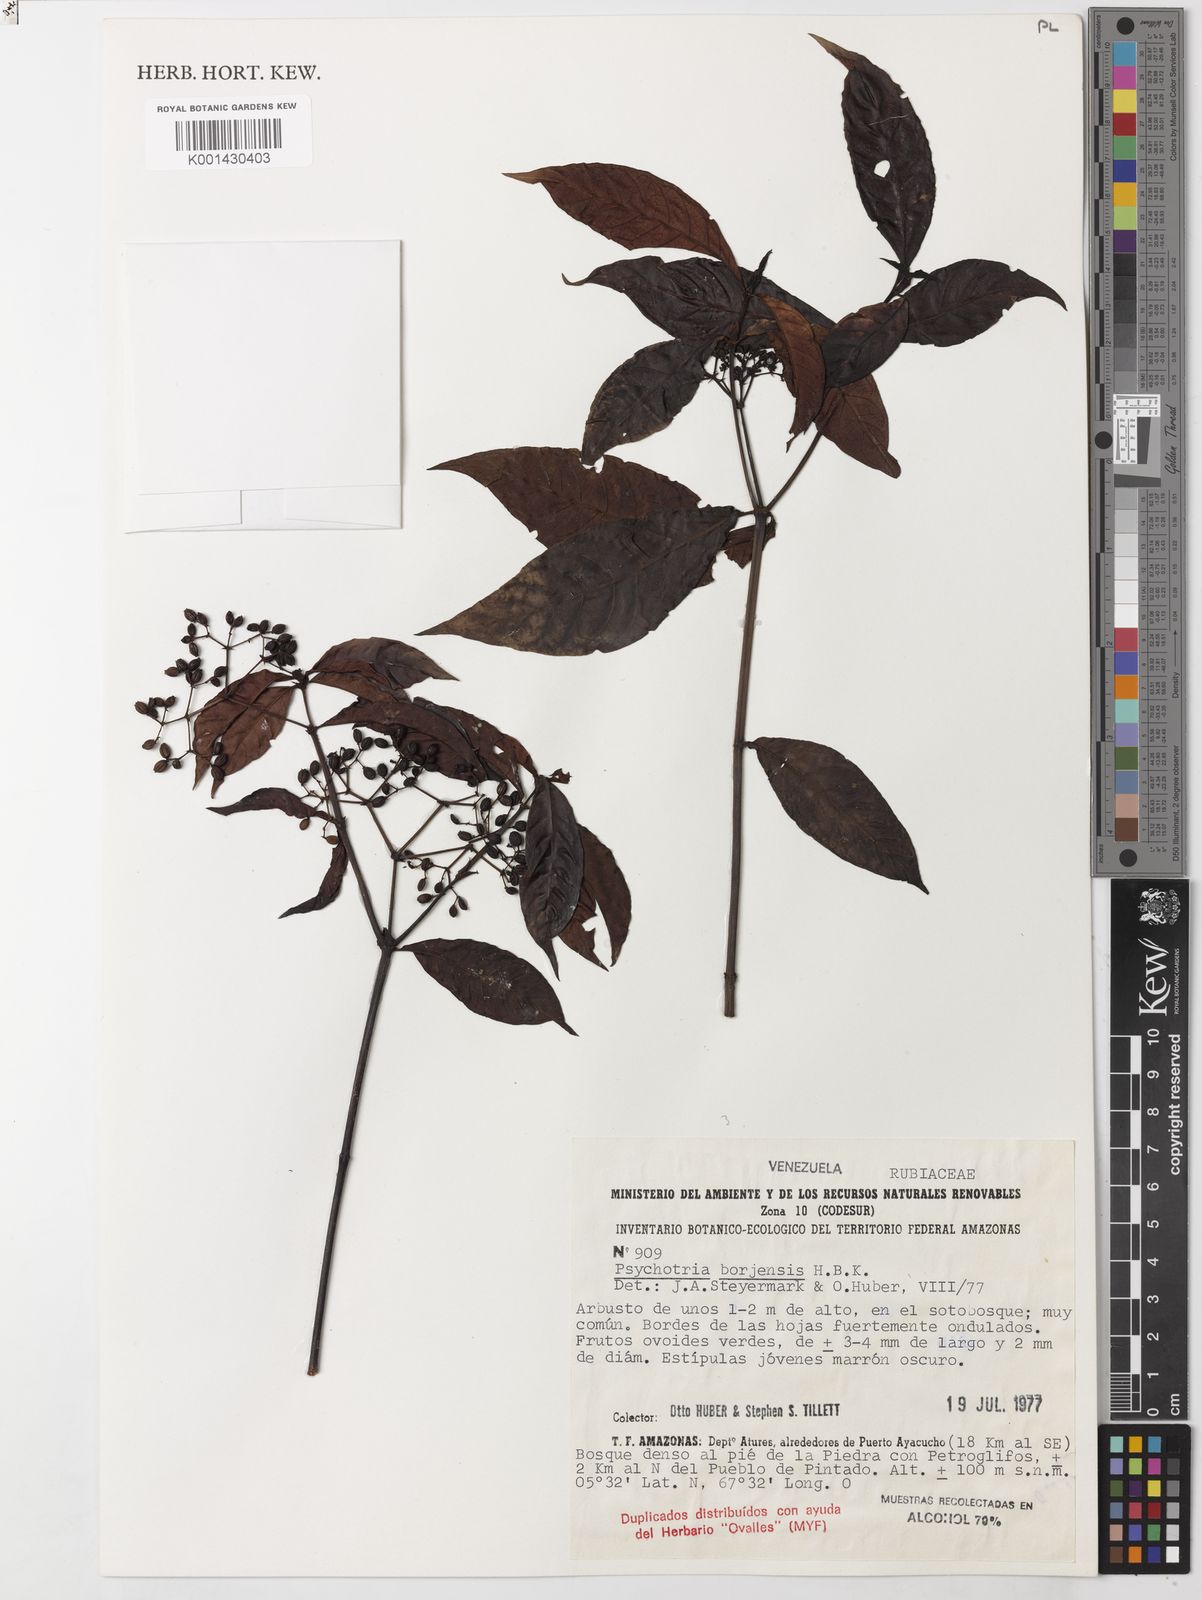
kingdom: Plantae
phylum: Tracheophyta
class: Magnoliopsida
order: Gentianales
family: Rubiaceae
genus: Psychotria
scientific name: Psychotria borjensis
